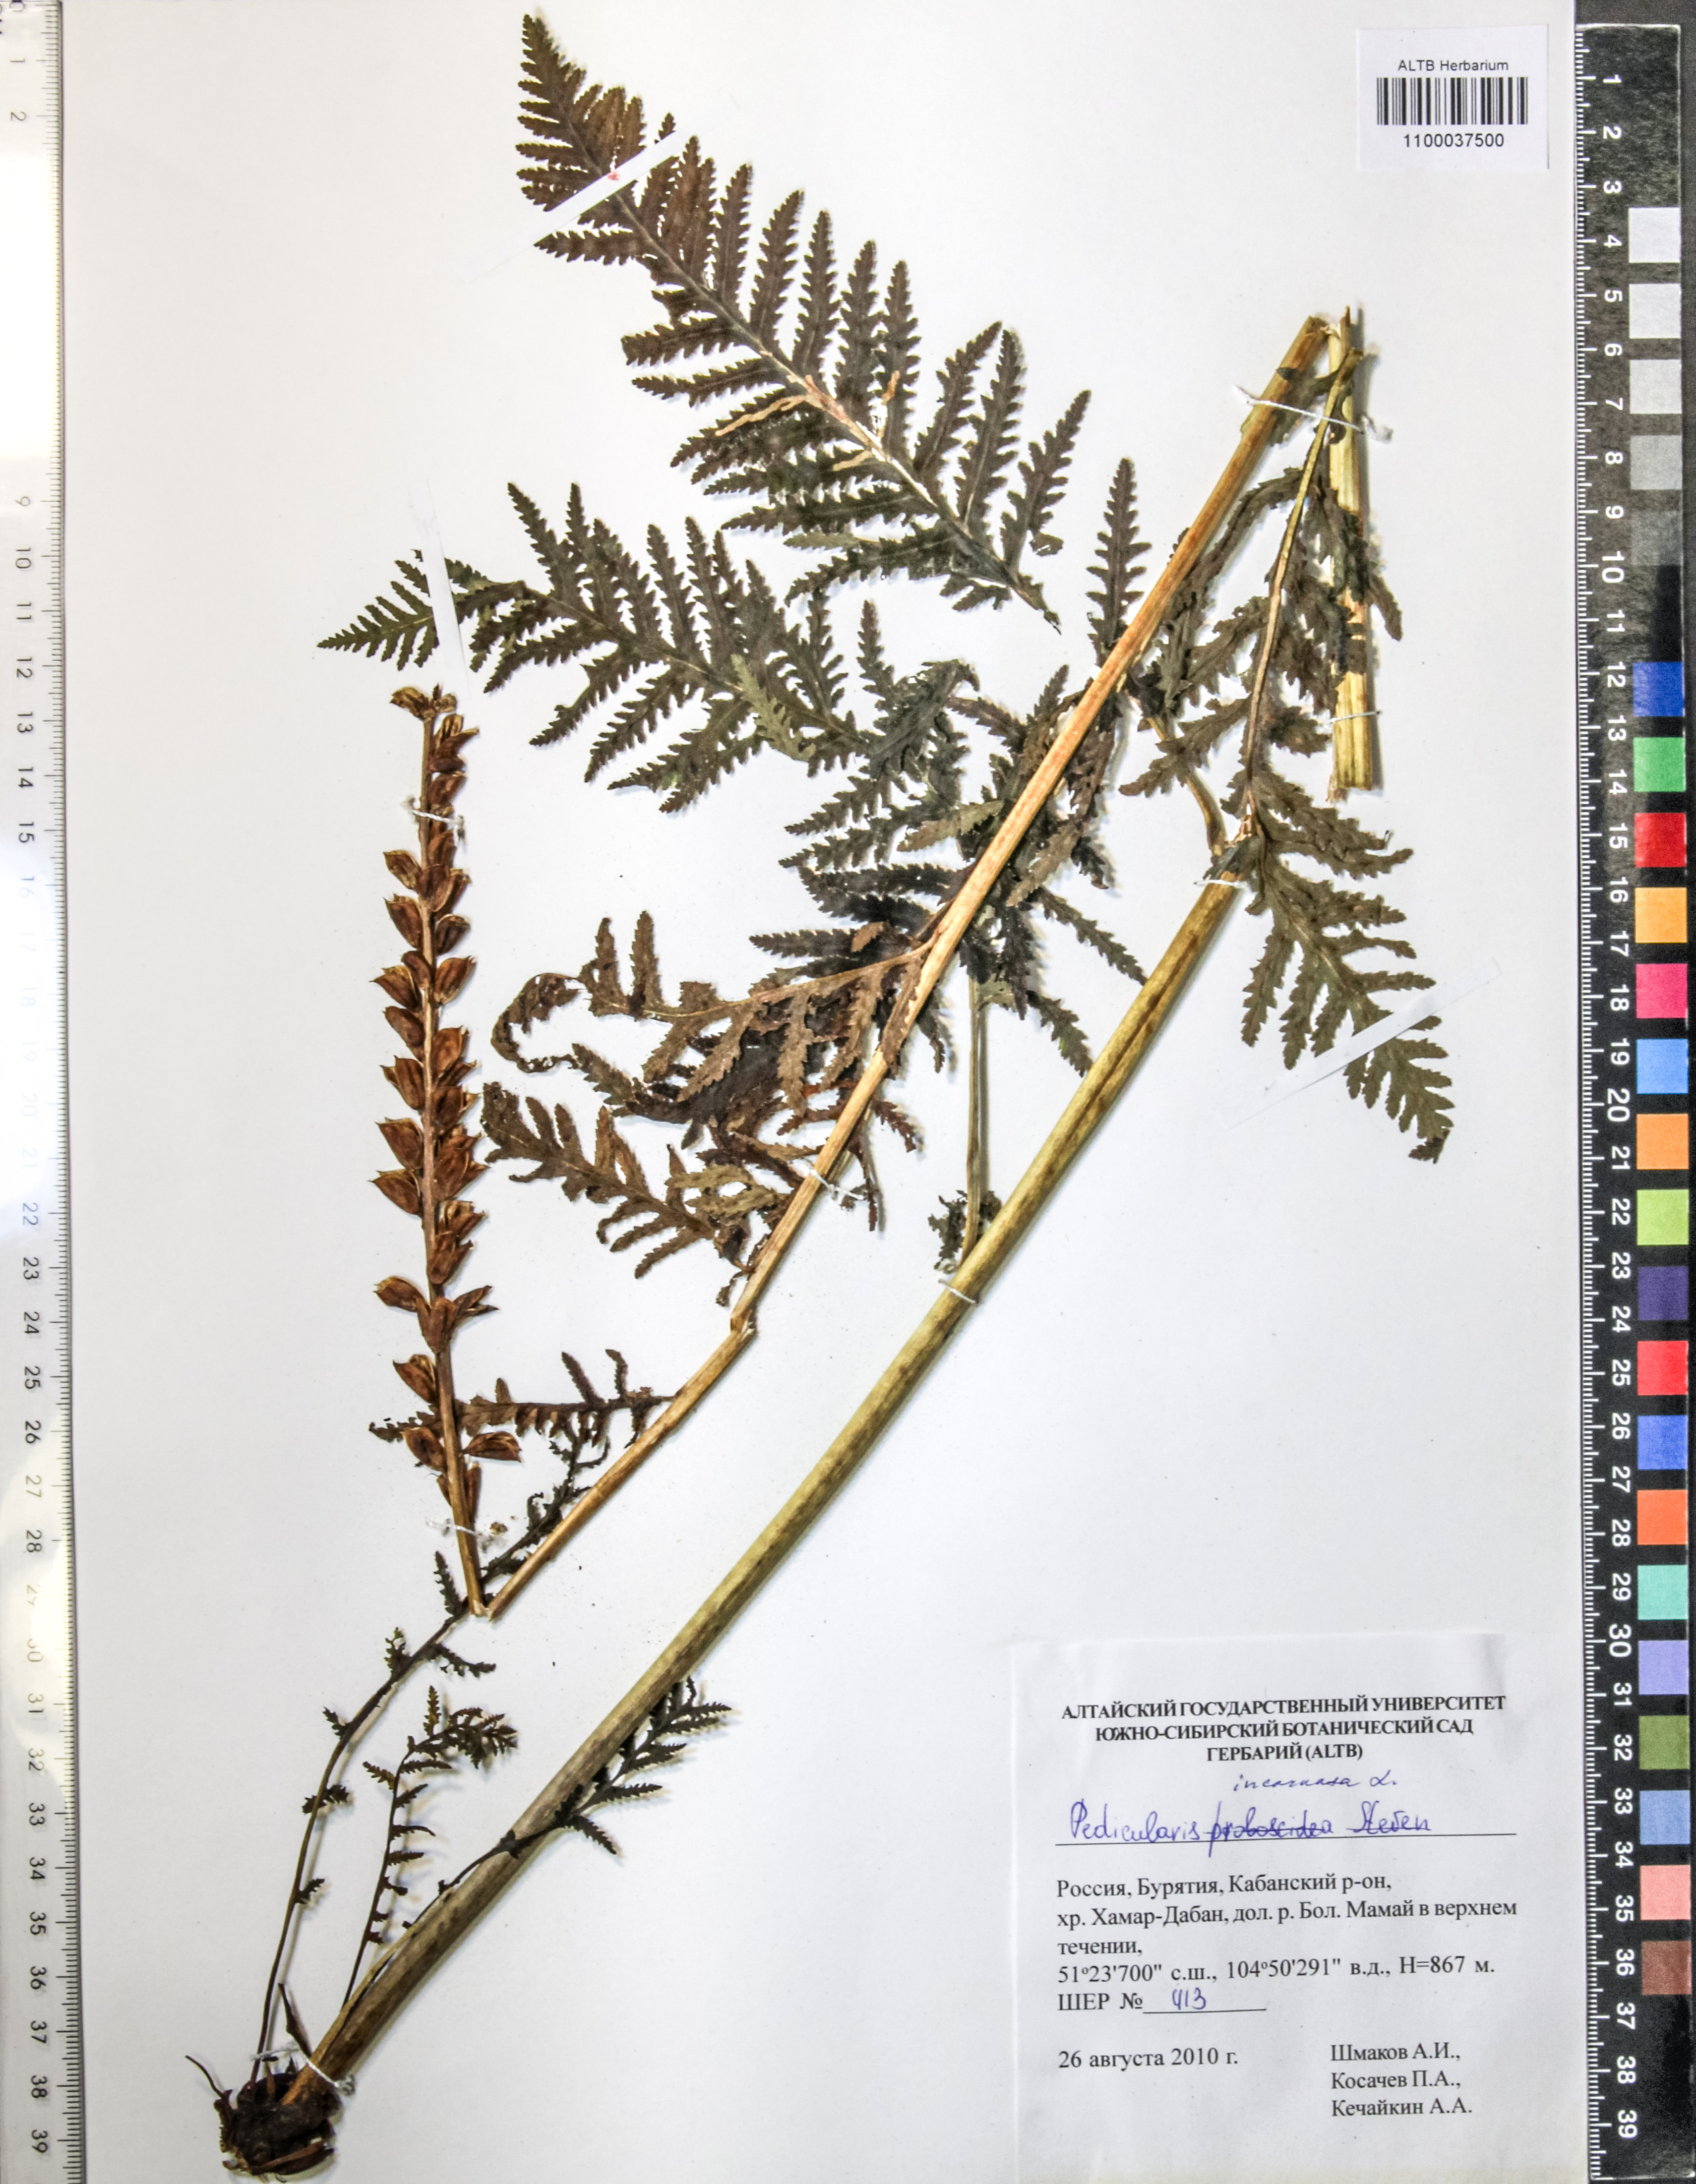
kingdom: Plantae
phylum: Tracheophyta
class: Magnoliopsida
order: Lamiales
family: Orobanchaceae
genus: Pedicularis
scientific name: Pedicularis incarnata
